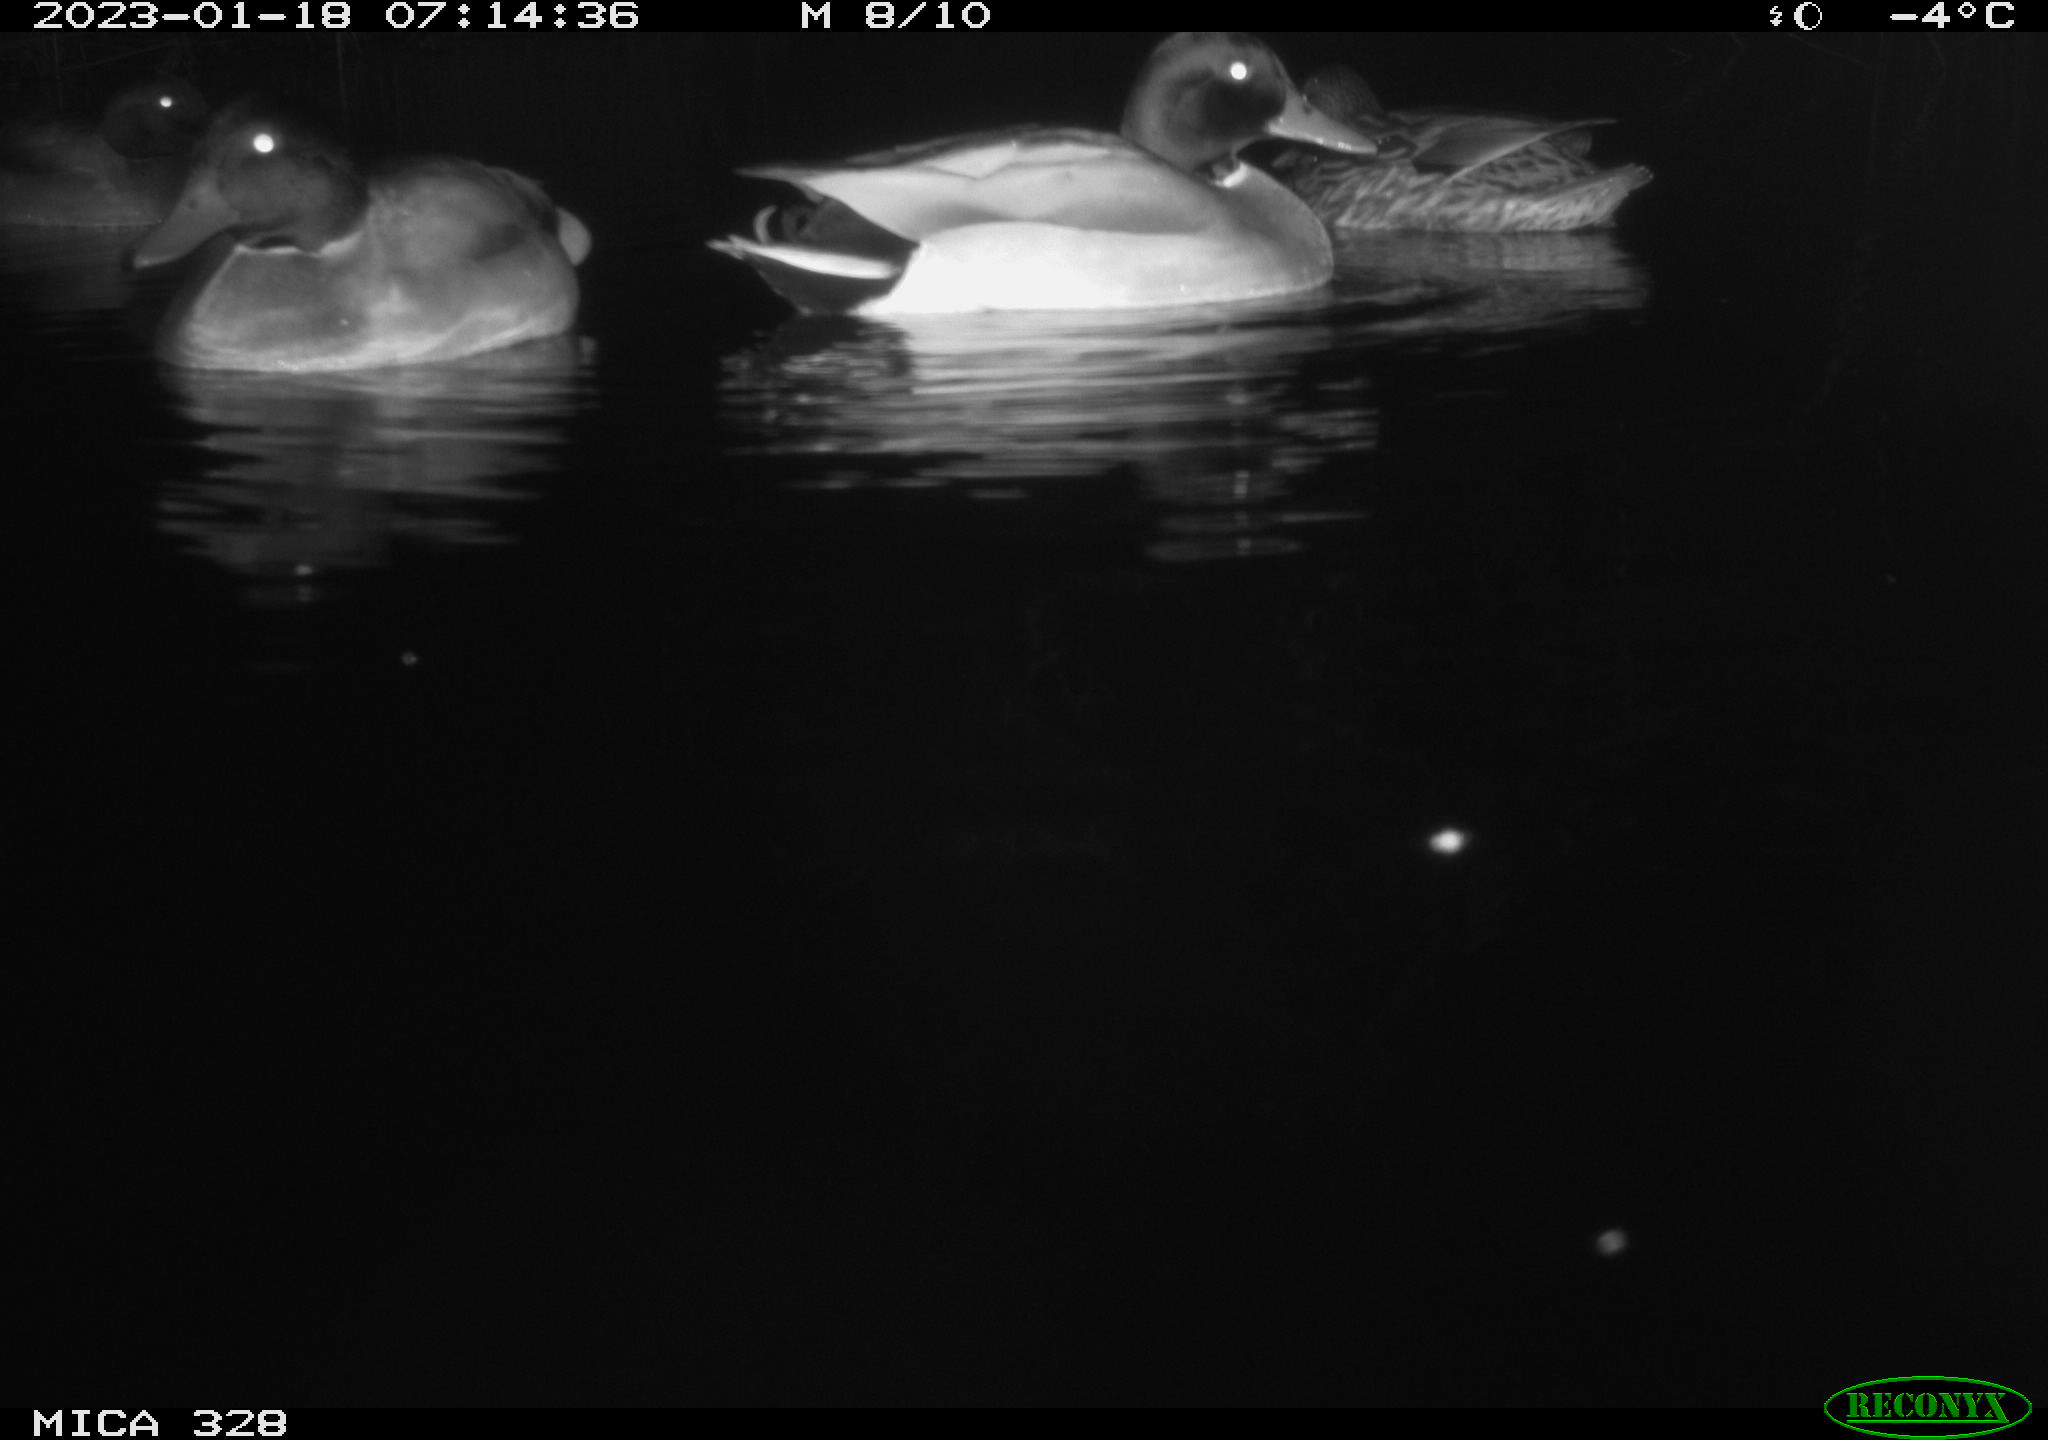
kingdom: Animalia
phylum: Chordata
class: Aves
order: Anseriformes
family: Anatidae
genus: Anas
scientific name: Anas
